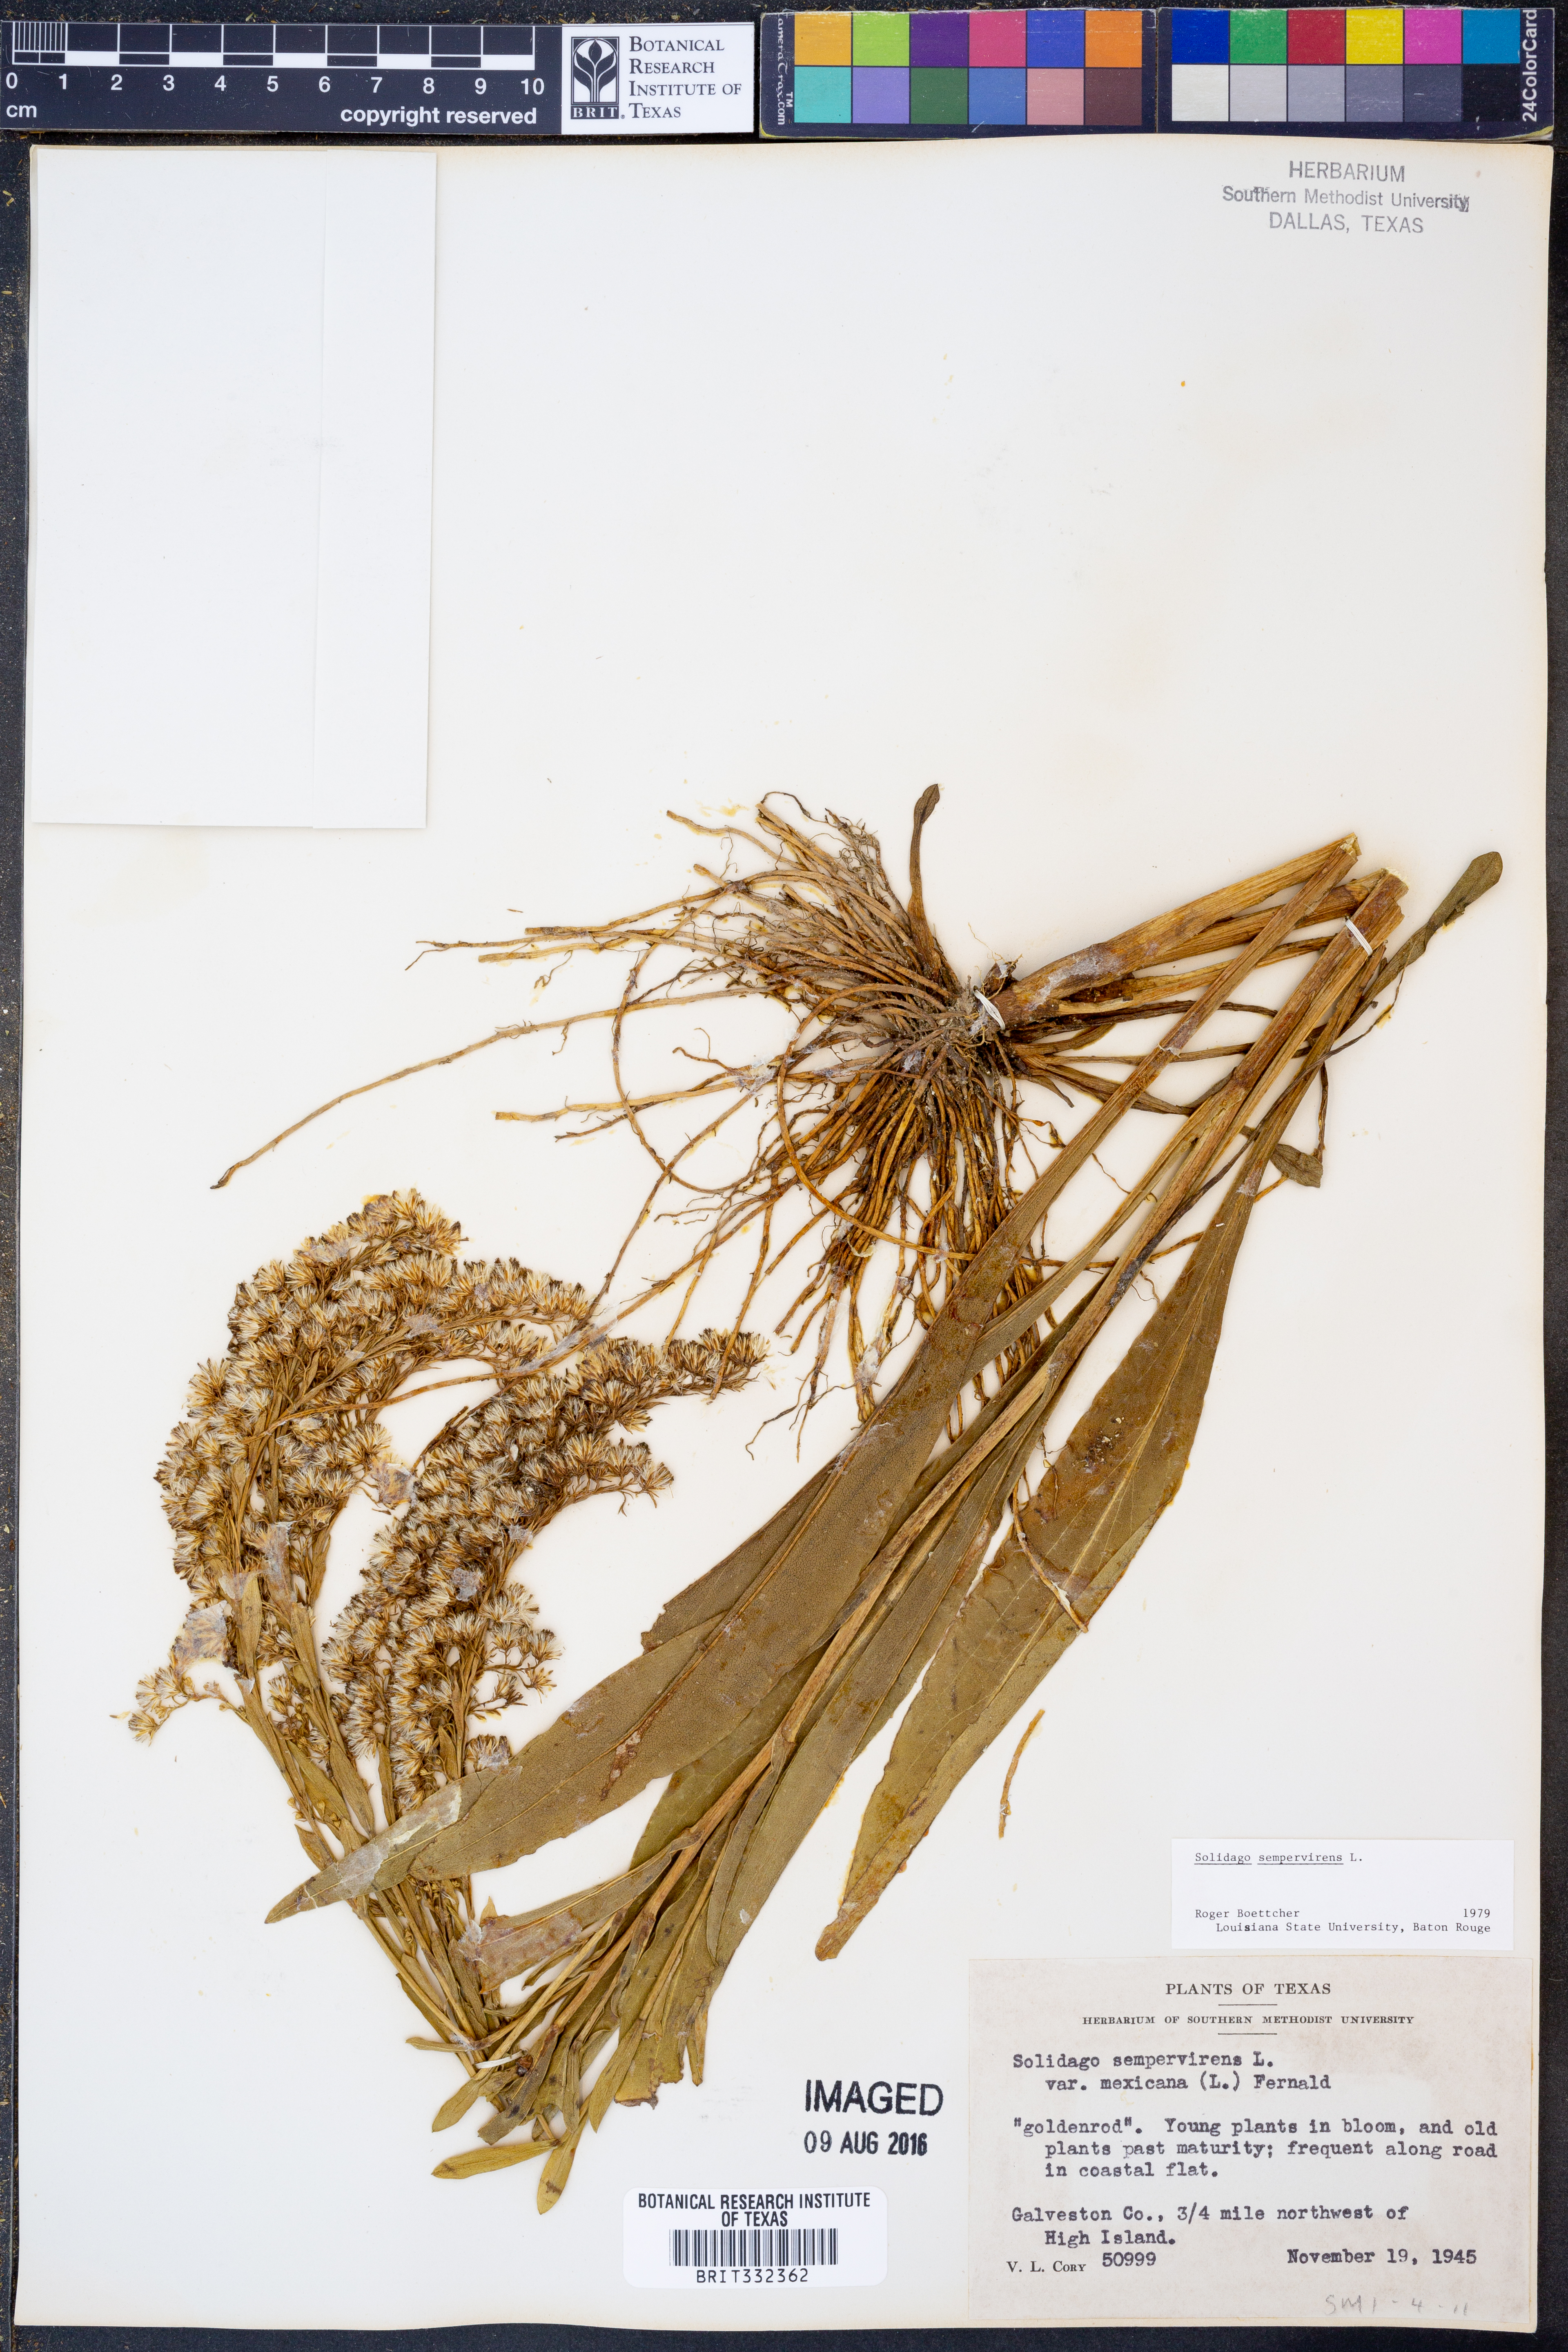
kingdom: Plantae
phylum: Tracheophyta
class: Magnoliopsida
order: Asterales
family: Asteraceae
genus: Solidago
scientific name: Solidago sempervirens
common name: Salt-marsh goldenrod
